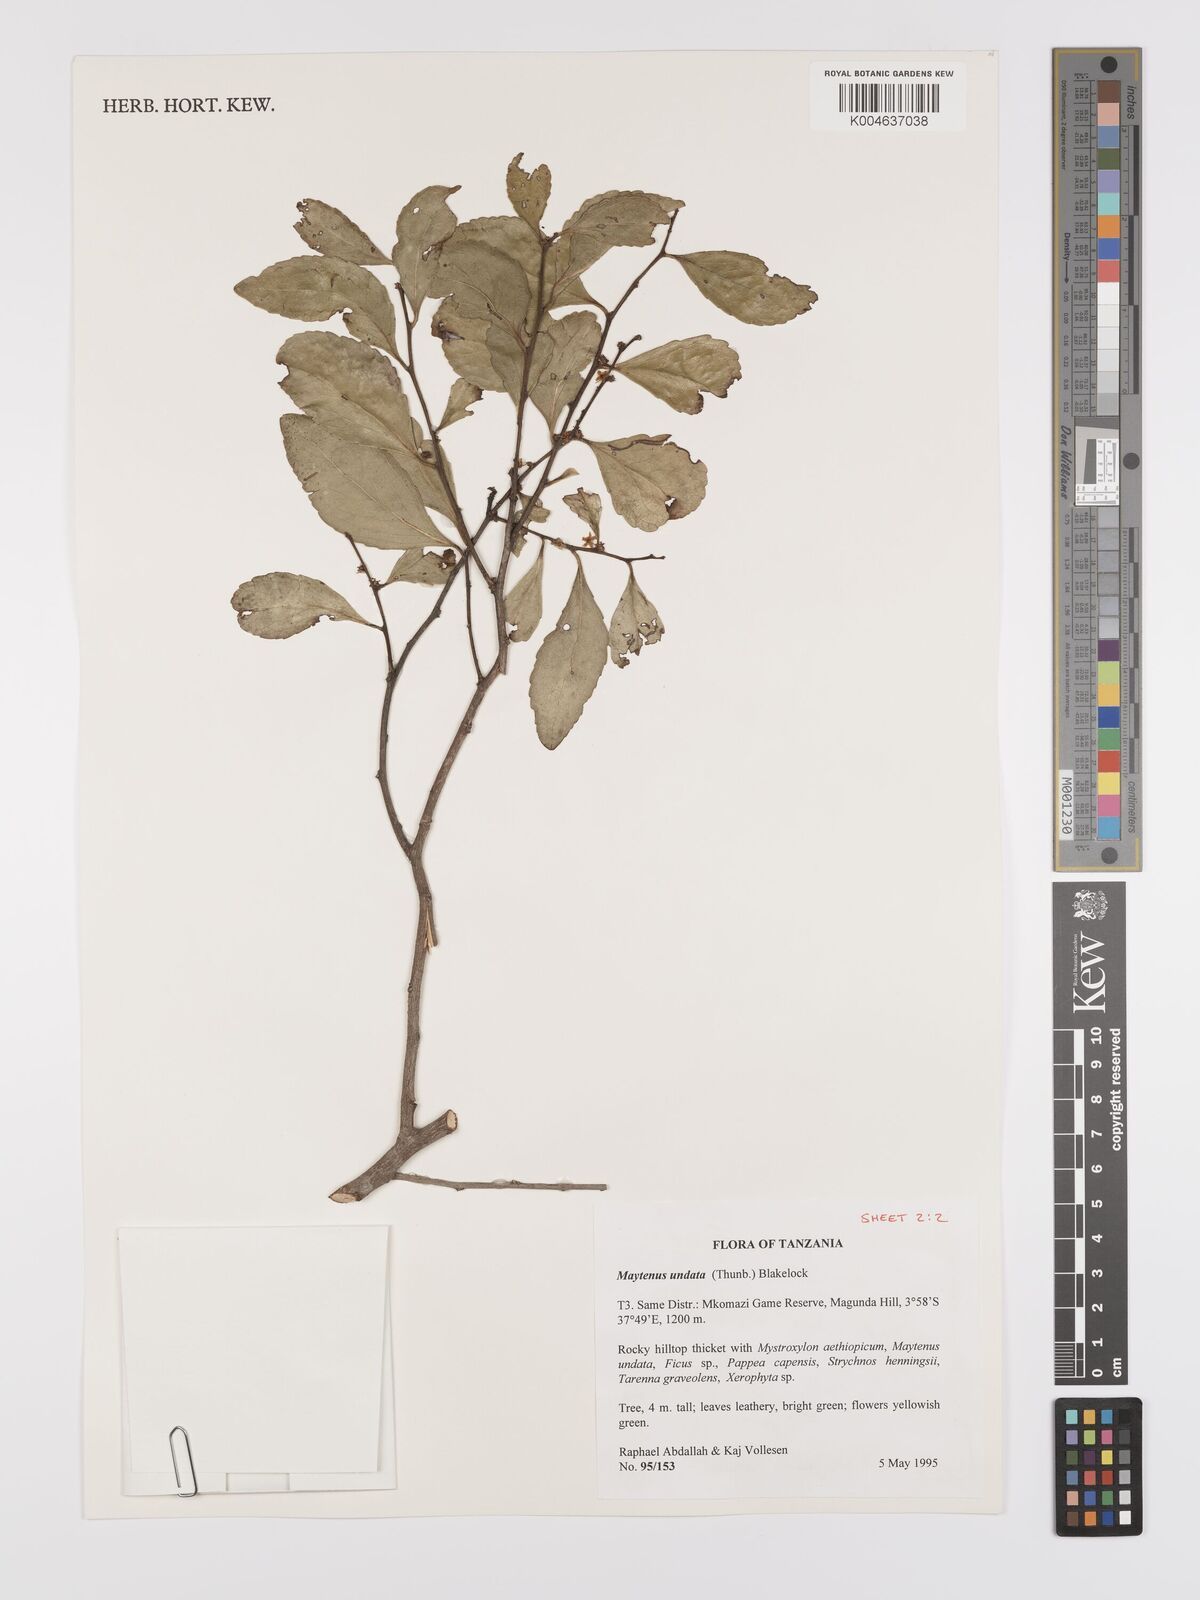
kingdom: Plantae
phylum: Tracheophyta
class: Magnoliopsida
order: Celastrales
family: Celastraceae
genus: Gymnosporia
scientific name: Gymnosporia undata
